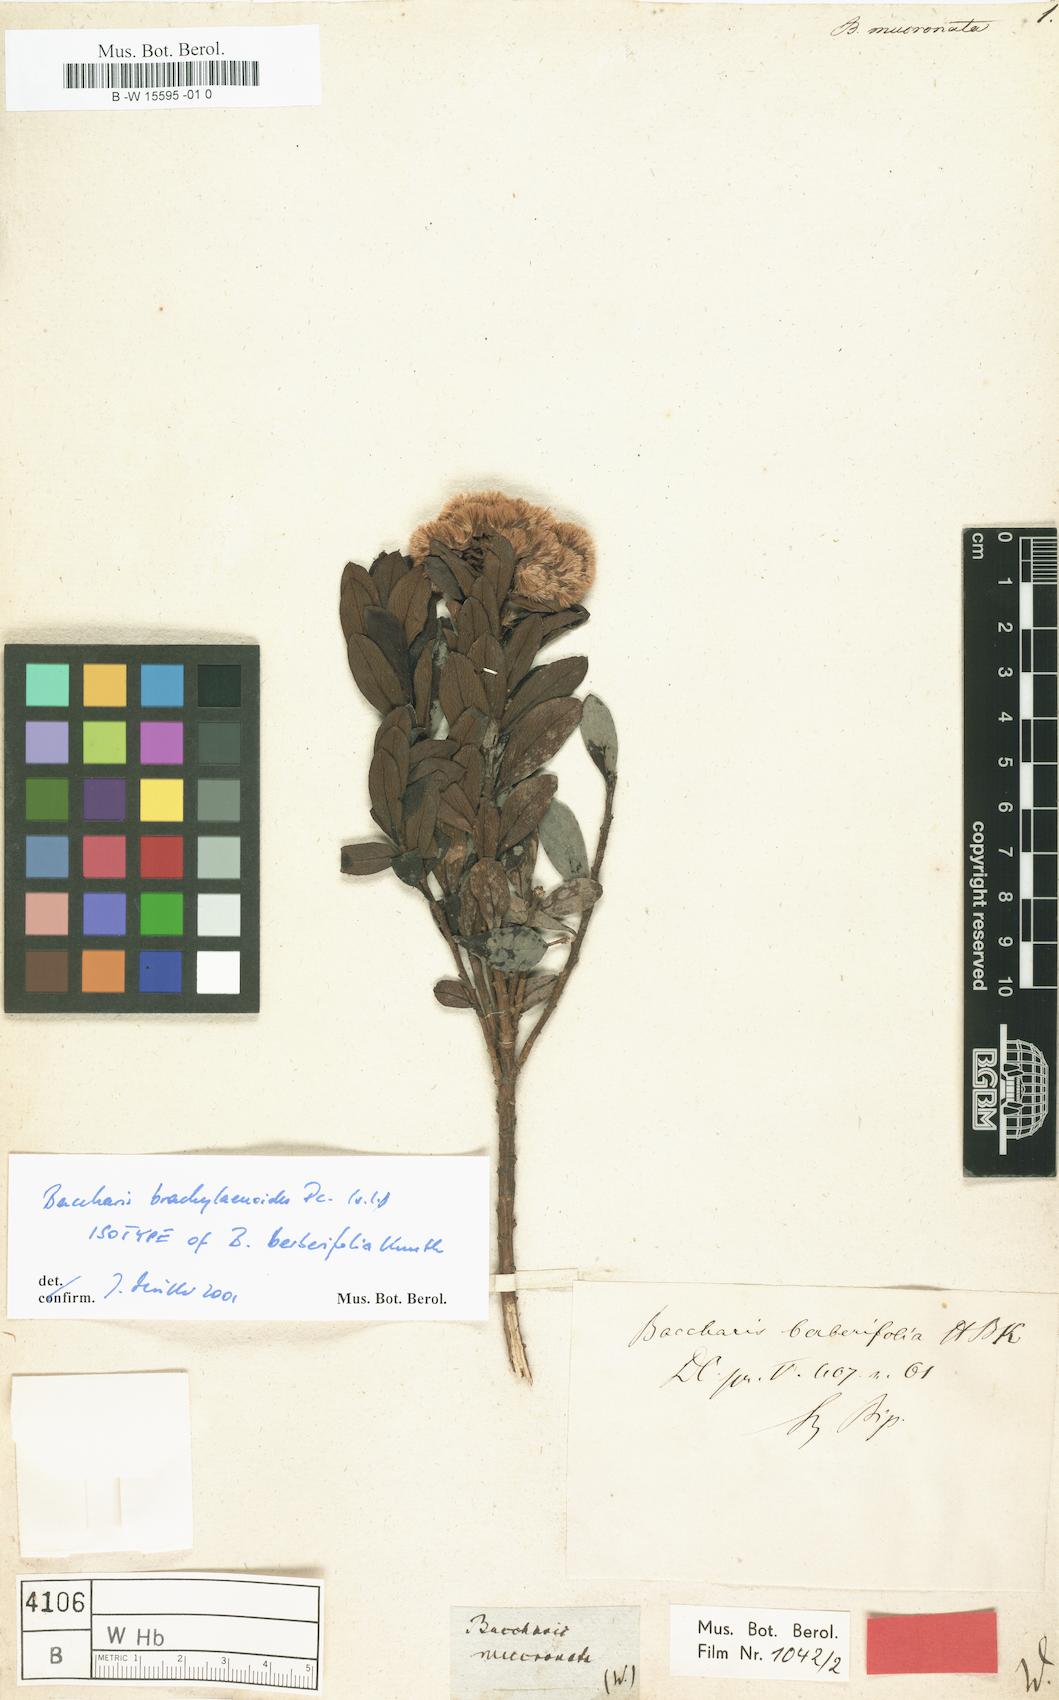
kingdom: Plantae
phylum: Tracheophyta
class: Magnoliopsida
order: Asterales
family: Asteraceae
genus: Archibaccharis
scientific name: Archibaccharis serratifolia
